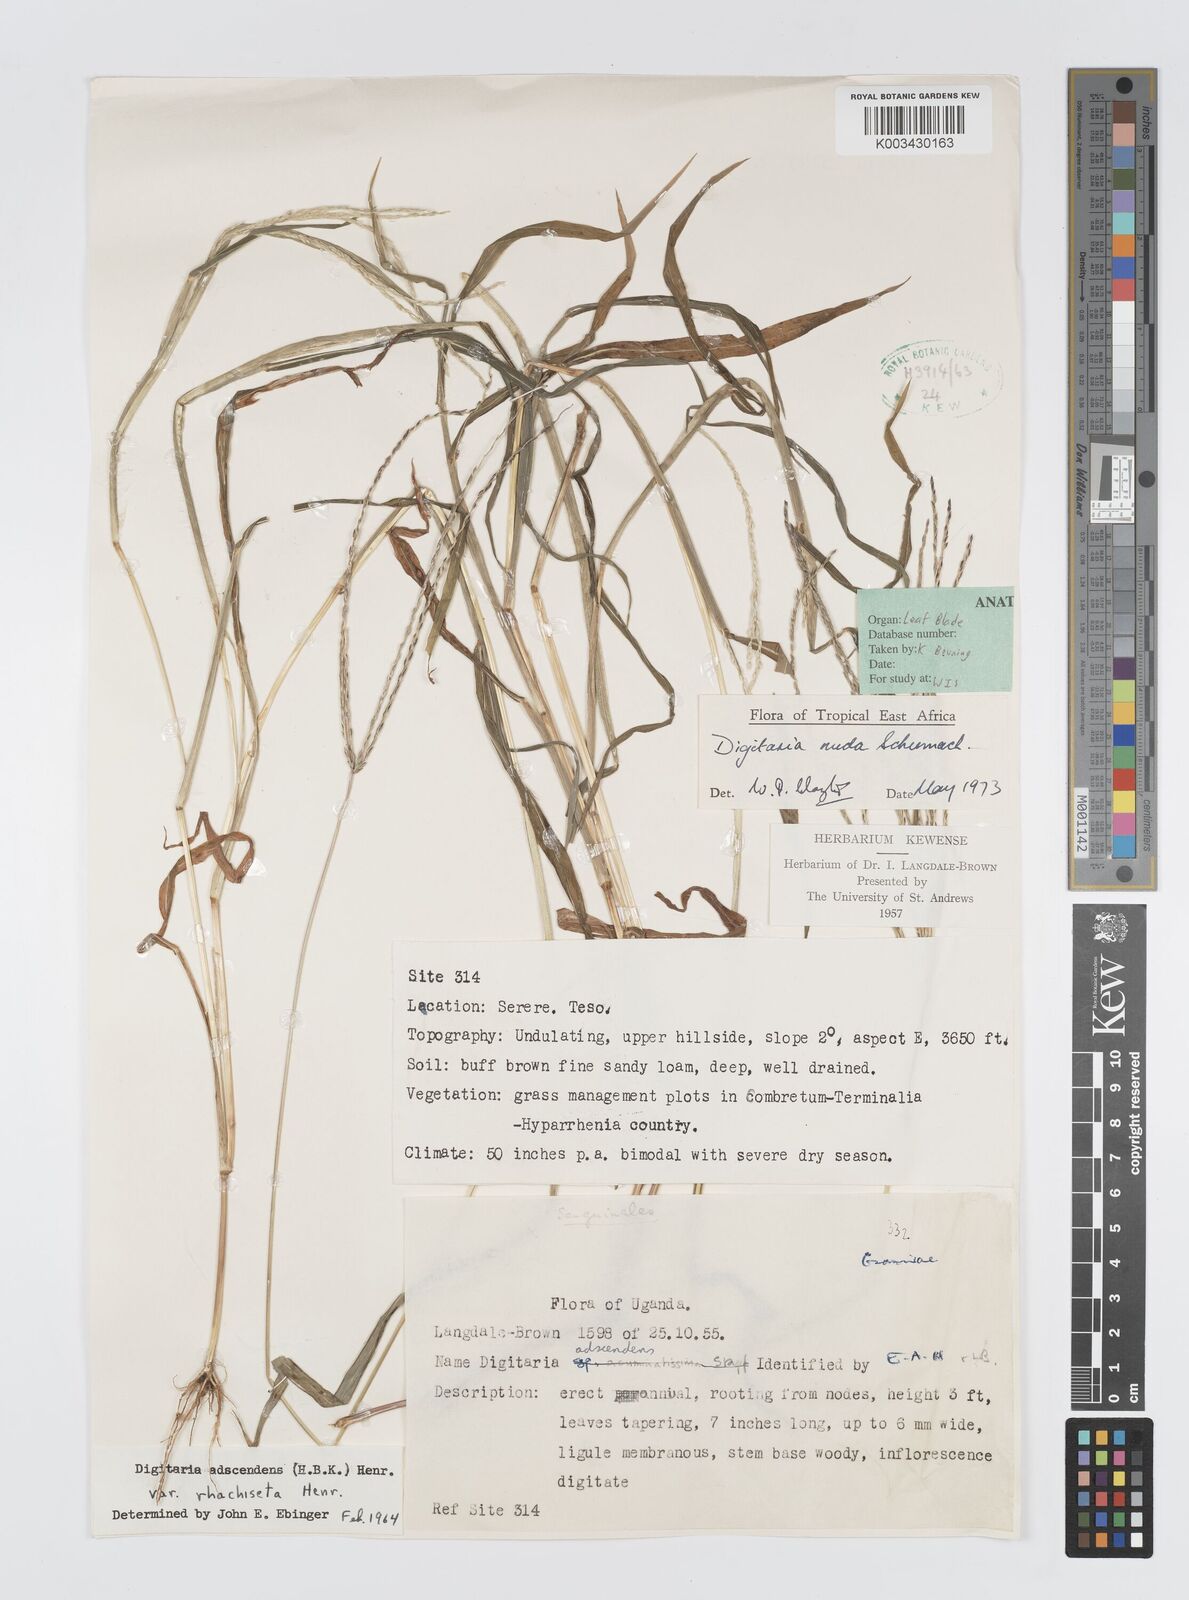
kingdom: Plantae
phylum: Tracheophyta
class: Liliopsida
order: Poales
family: Poaceae
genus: Digitaria
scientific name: Digitaria nuda
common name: Naked crabgrass
